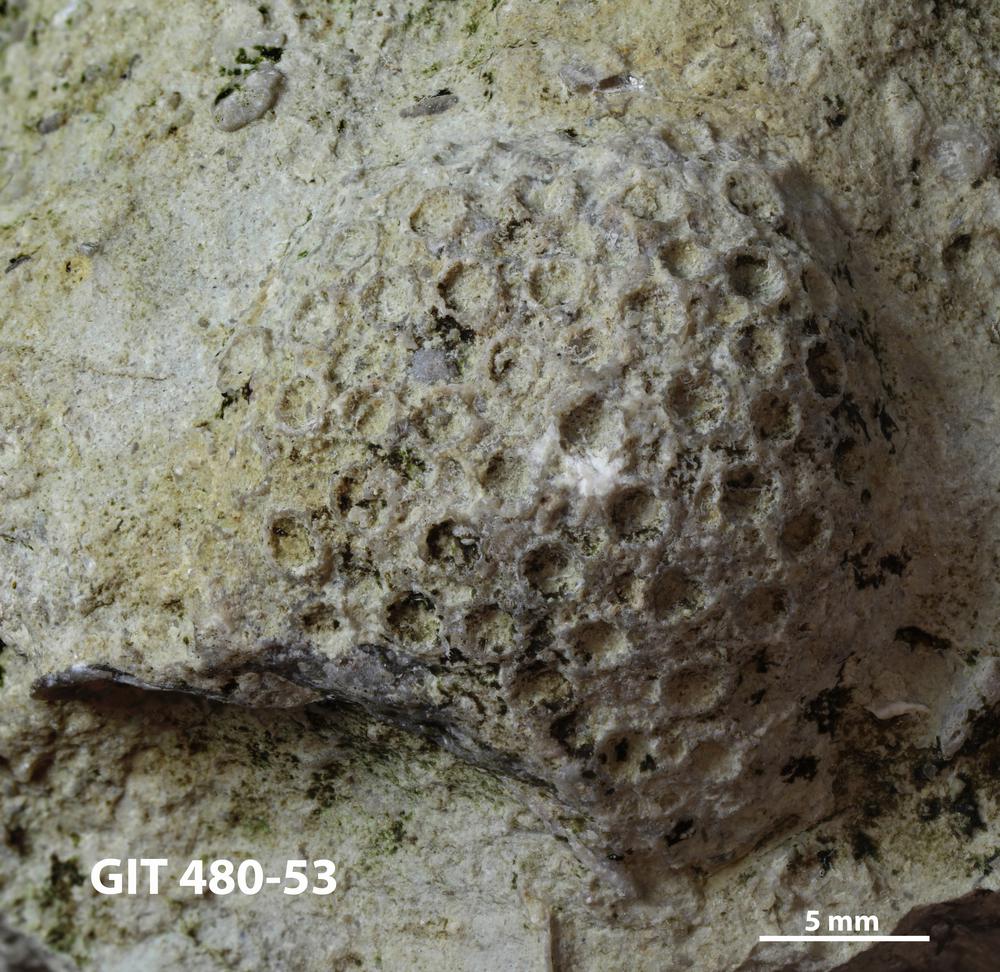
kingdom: Animalia
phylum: Xenacoelomorpha
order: Acoela
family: Proporidae
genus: Propora
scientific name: Propora
